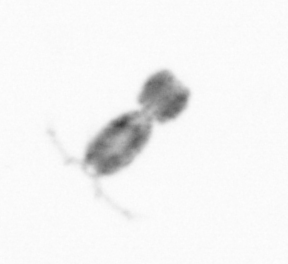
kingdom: Animalia
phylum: Arthropoda
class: Copepoda
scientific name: Copepoda
